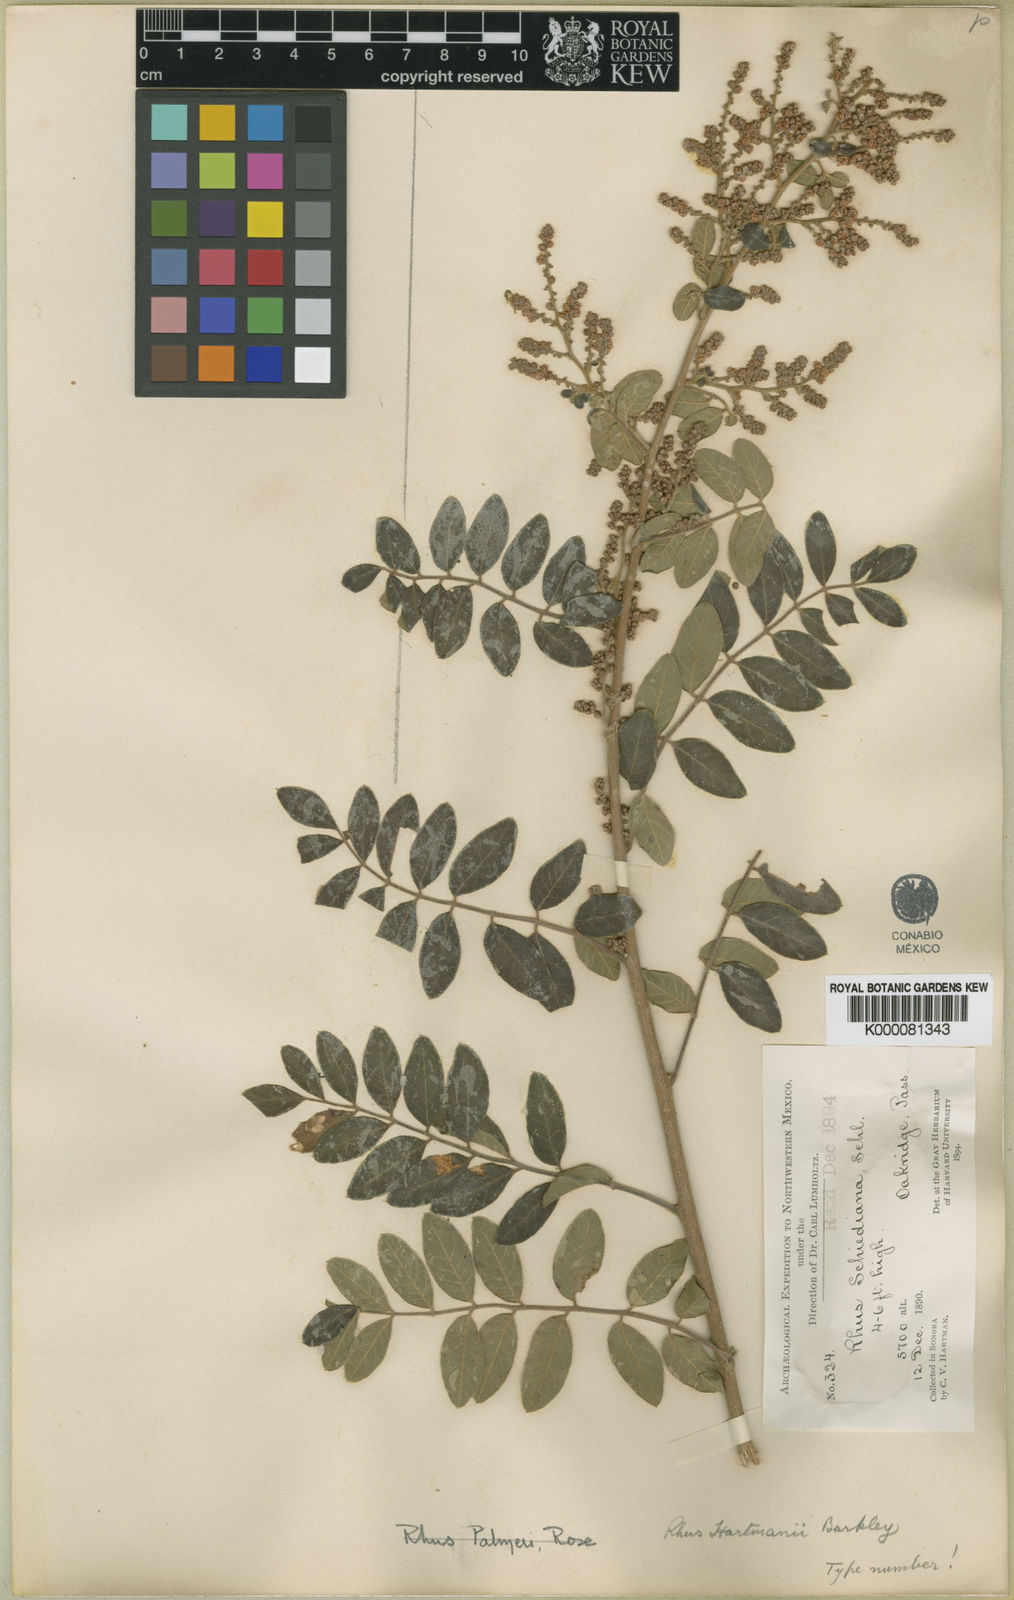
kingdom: Plantae
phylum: Tracheophyta
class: Magnoliopsida
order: Sapindales
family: Anacardiaceae
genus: Rhus
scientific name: Rhus schiedeana
